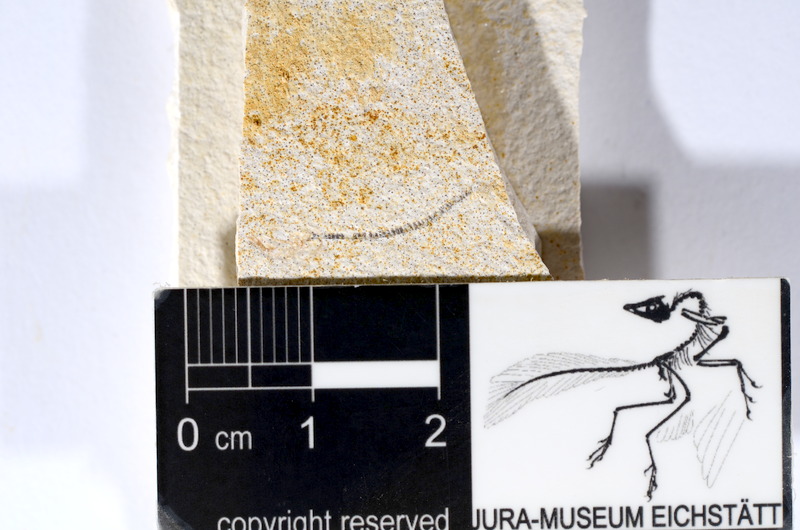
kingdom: Animalia
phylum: Chordata
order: Salmoniformes
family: Orthogonikleithridae
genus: Orthogonikleithrus
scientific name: Orthogonikleithrus hoelli
